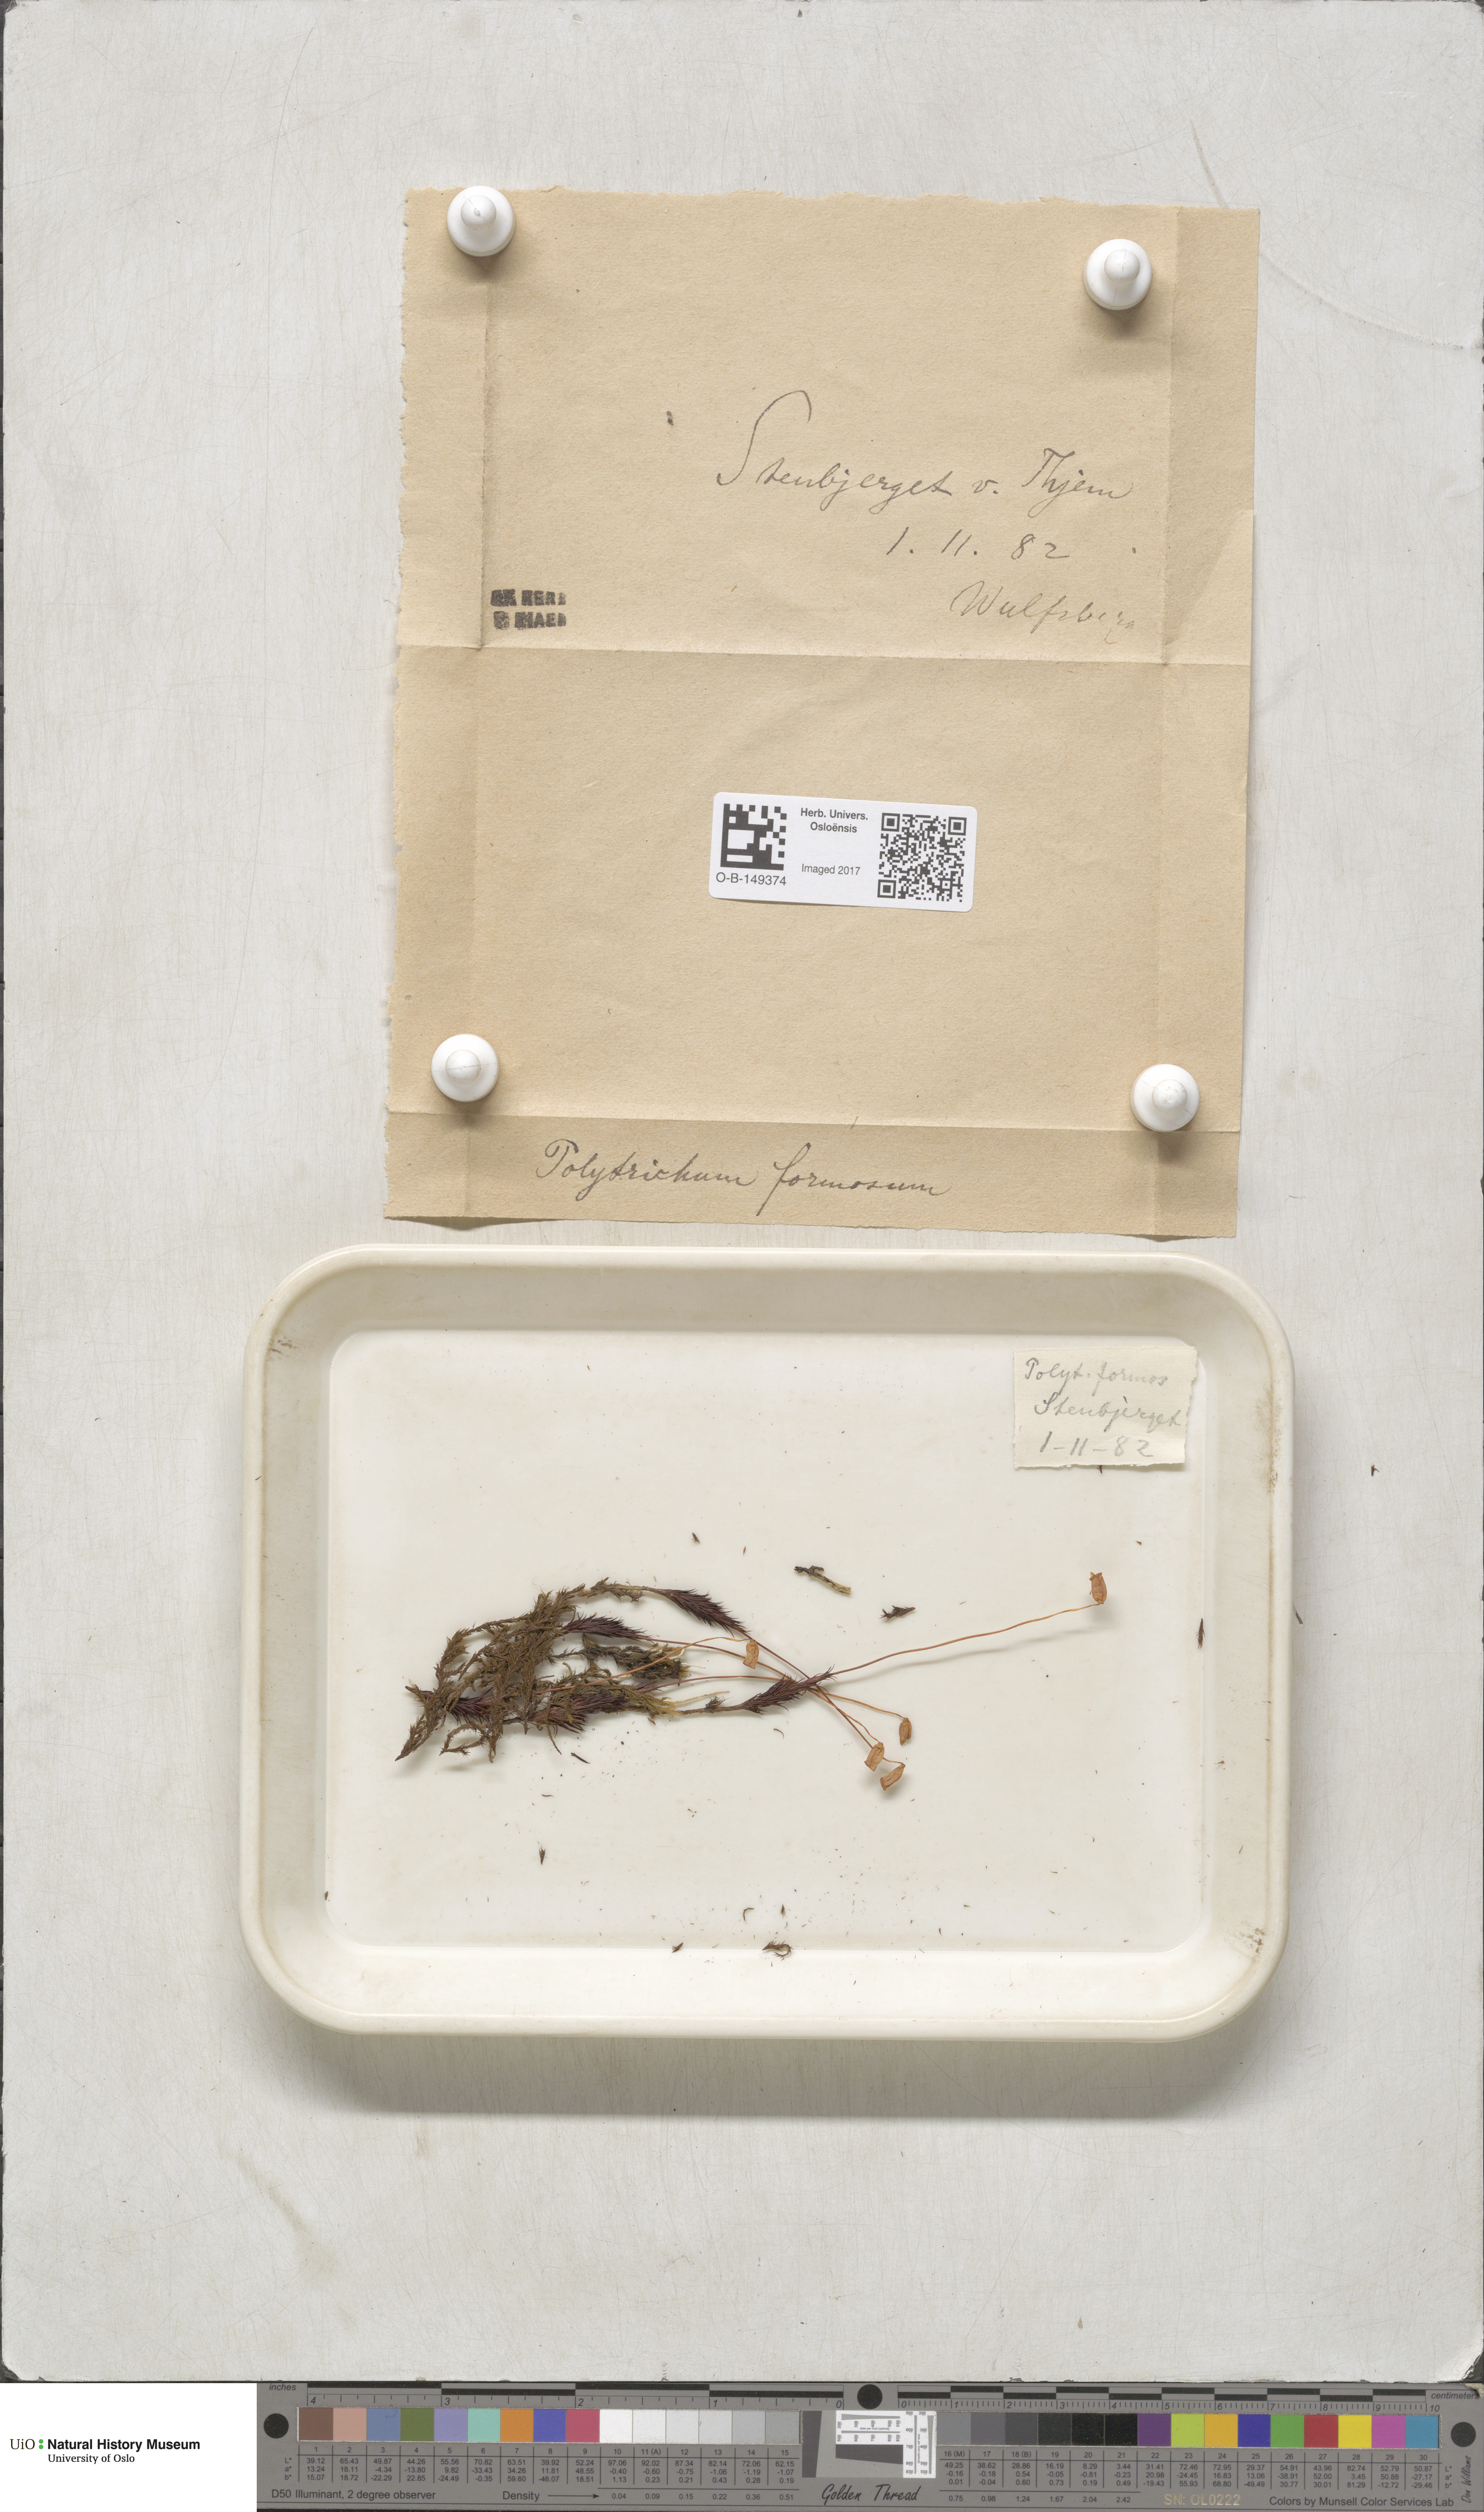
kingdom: Plantae
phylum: Bryophyta
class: Polytrichopsida
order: Polytrichales
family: Polytrichaceae
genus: Polytrichum
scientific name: Polytrichum formosum
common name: Bank haircap moss
